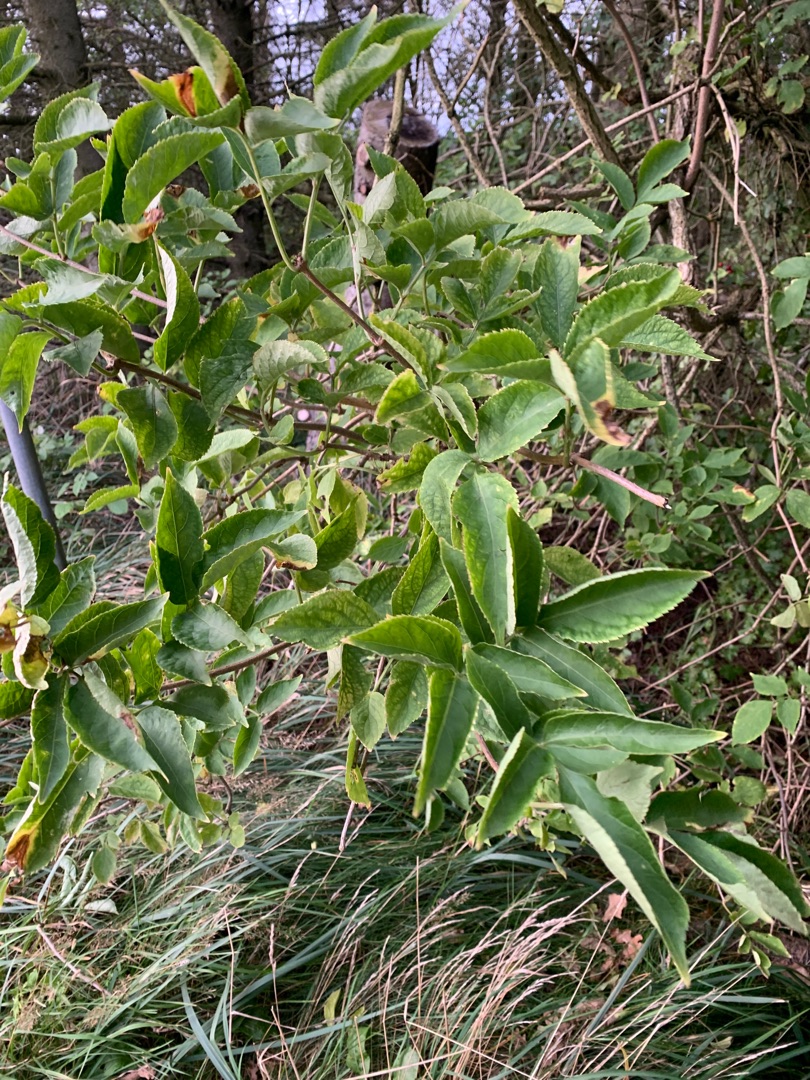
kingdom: Plantae
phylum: Tracheophyta
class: Magnoliopsida
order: Dipsacales
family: Viburnaceae
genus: Sambucus
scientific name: Sambucus nigra
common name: Almindelig hyld
